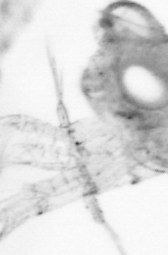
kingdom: Animalia
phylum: Arthropoda
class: Copepoda
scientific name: Copepoda
